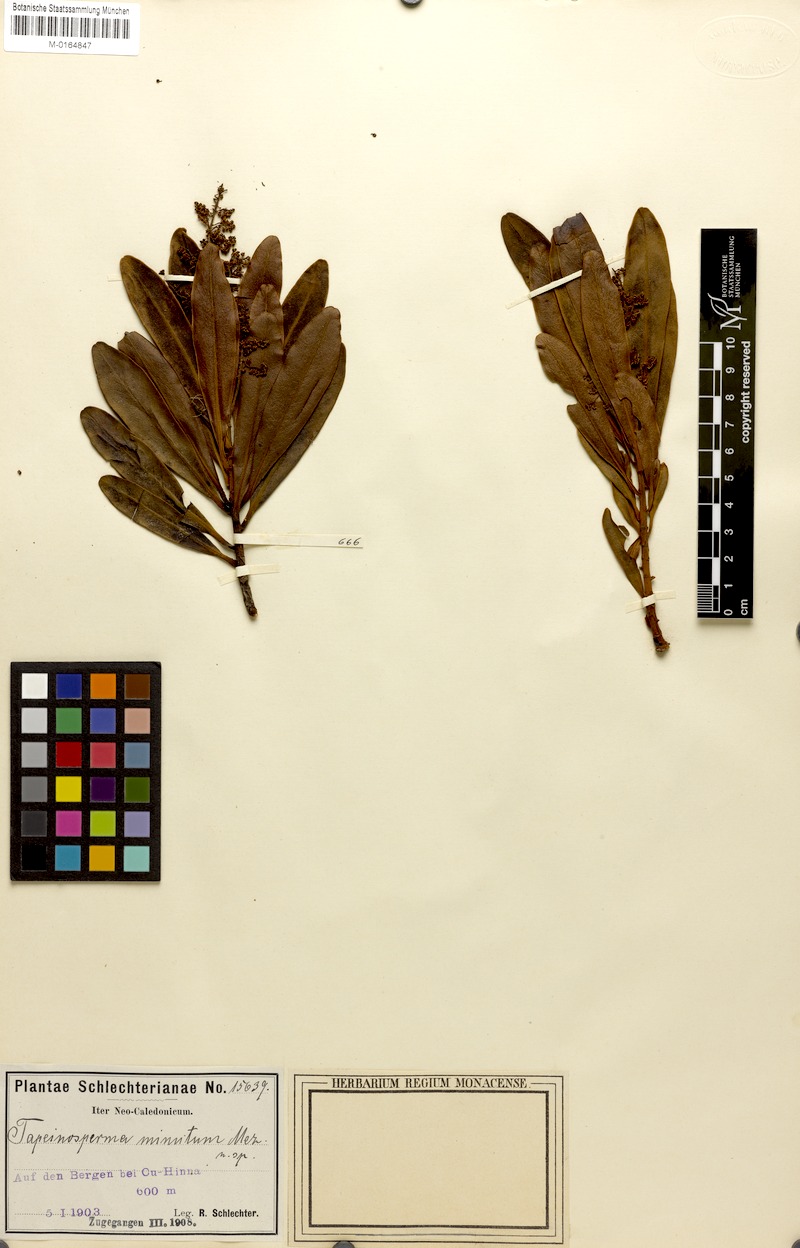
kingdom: Plantae
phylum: Tracheophyta
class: Magnoliopsida
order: Ericales
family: Primulaceae
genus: Tapeinosperma
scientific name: Tapeinosperma minutum
